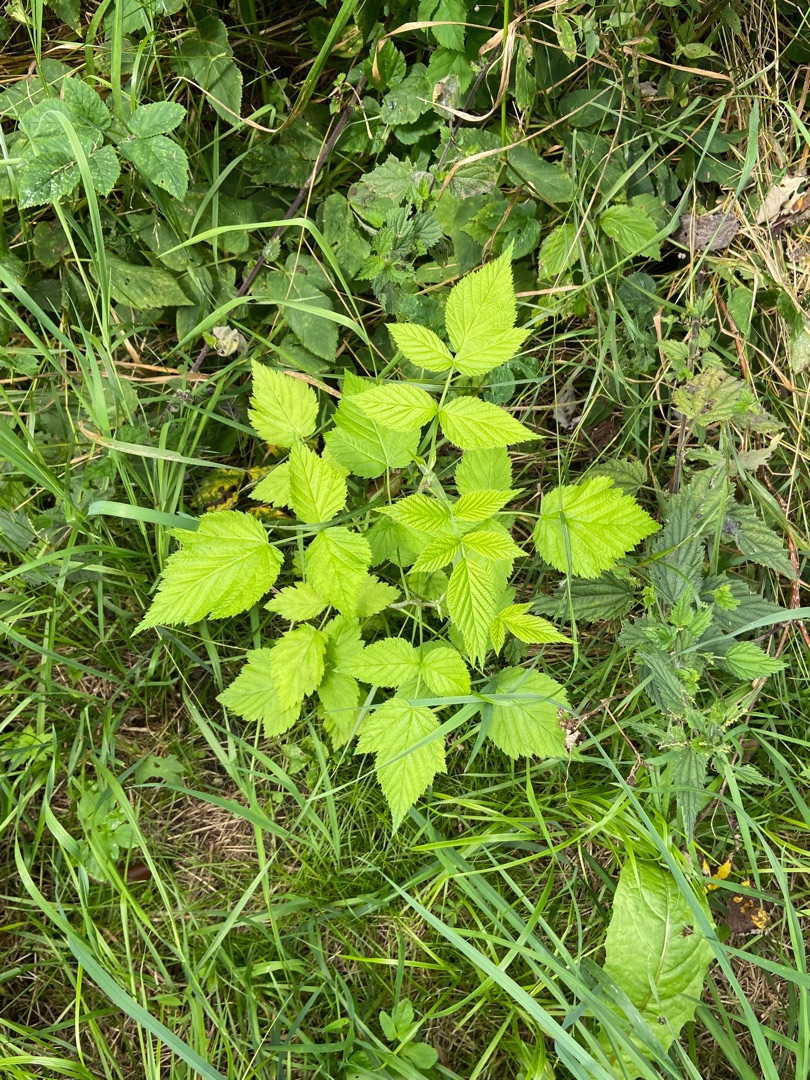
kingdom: Plantae
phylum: Tracheophyta
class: Magnoliopsida
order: Rosales
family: Rosaceae
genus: Rubus
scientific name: Rubus idaeus
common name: Hindbær
